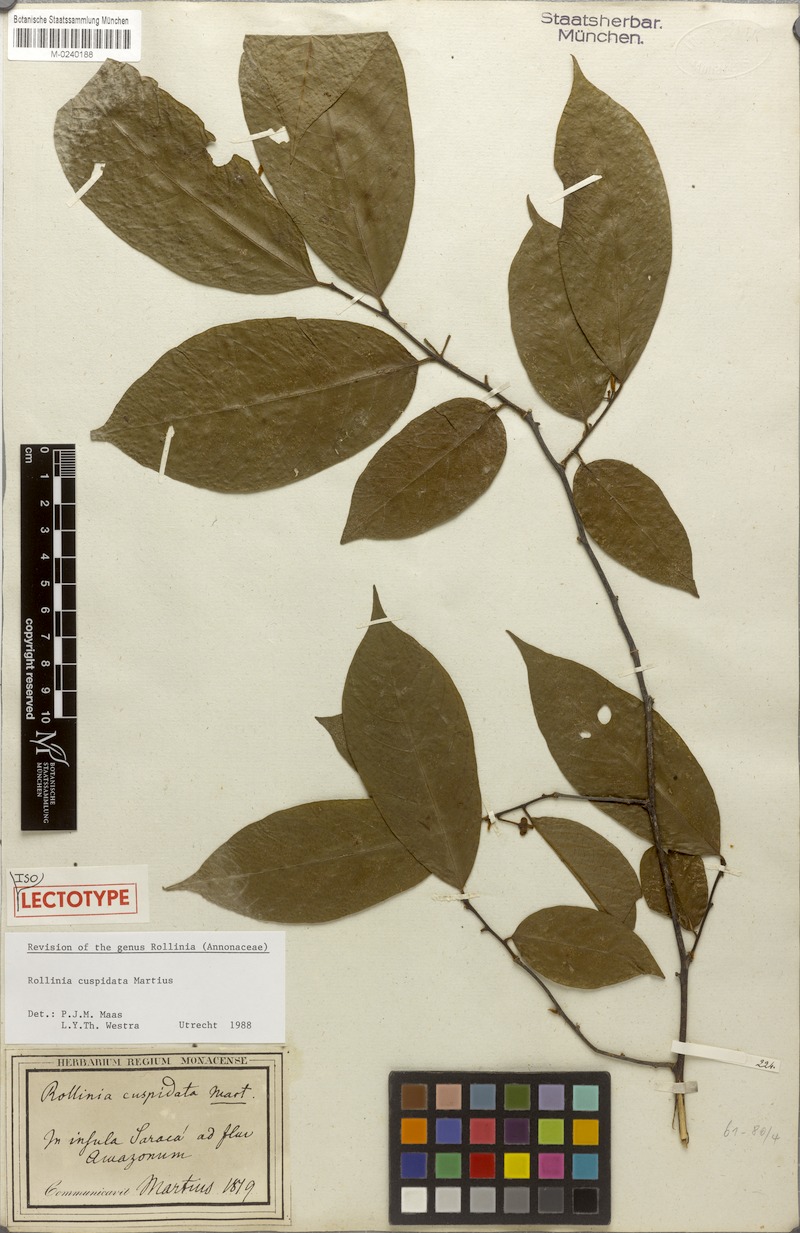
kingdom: Plantae
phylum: Tracheophyta
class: Magnoliopsida
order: Magnoliales
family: Annonaceae
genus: Annona
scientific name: Annona cuspidata
